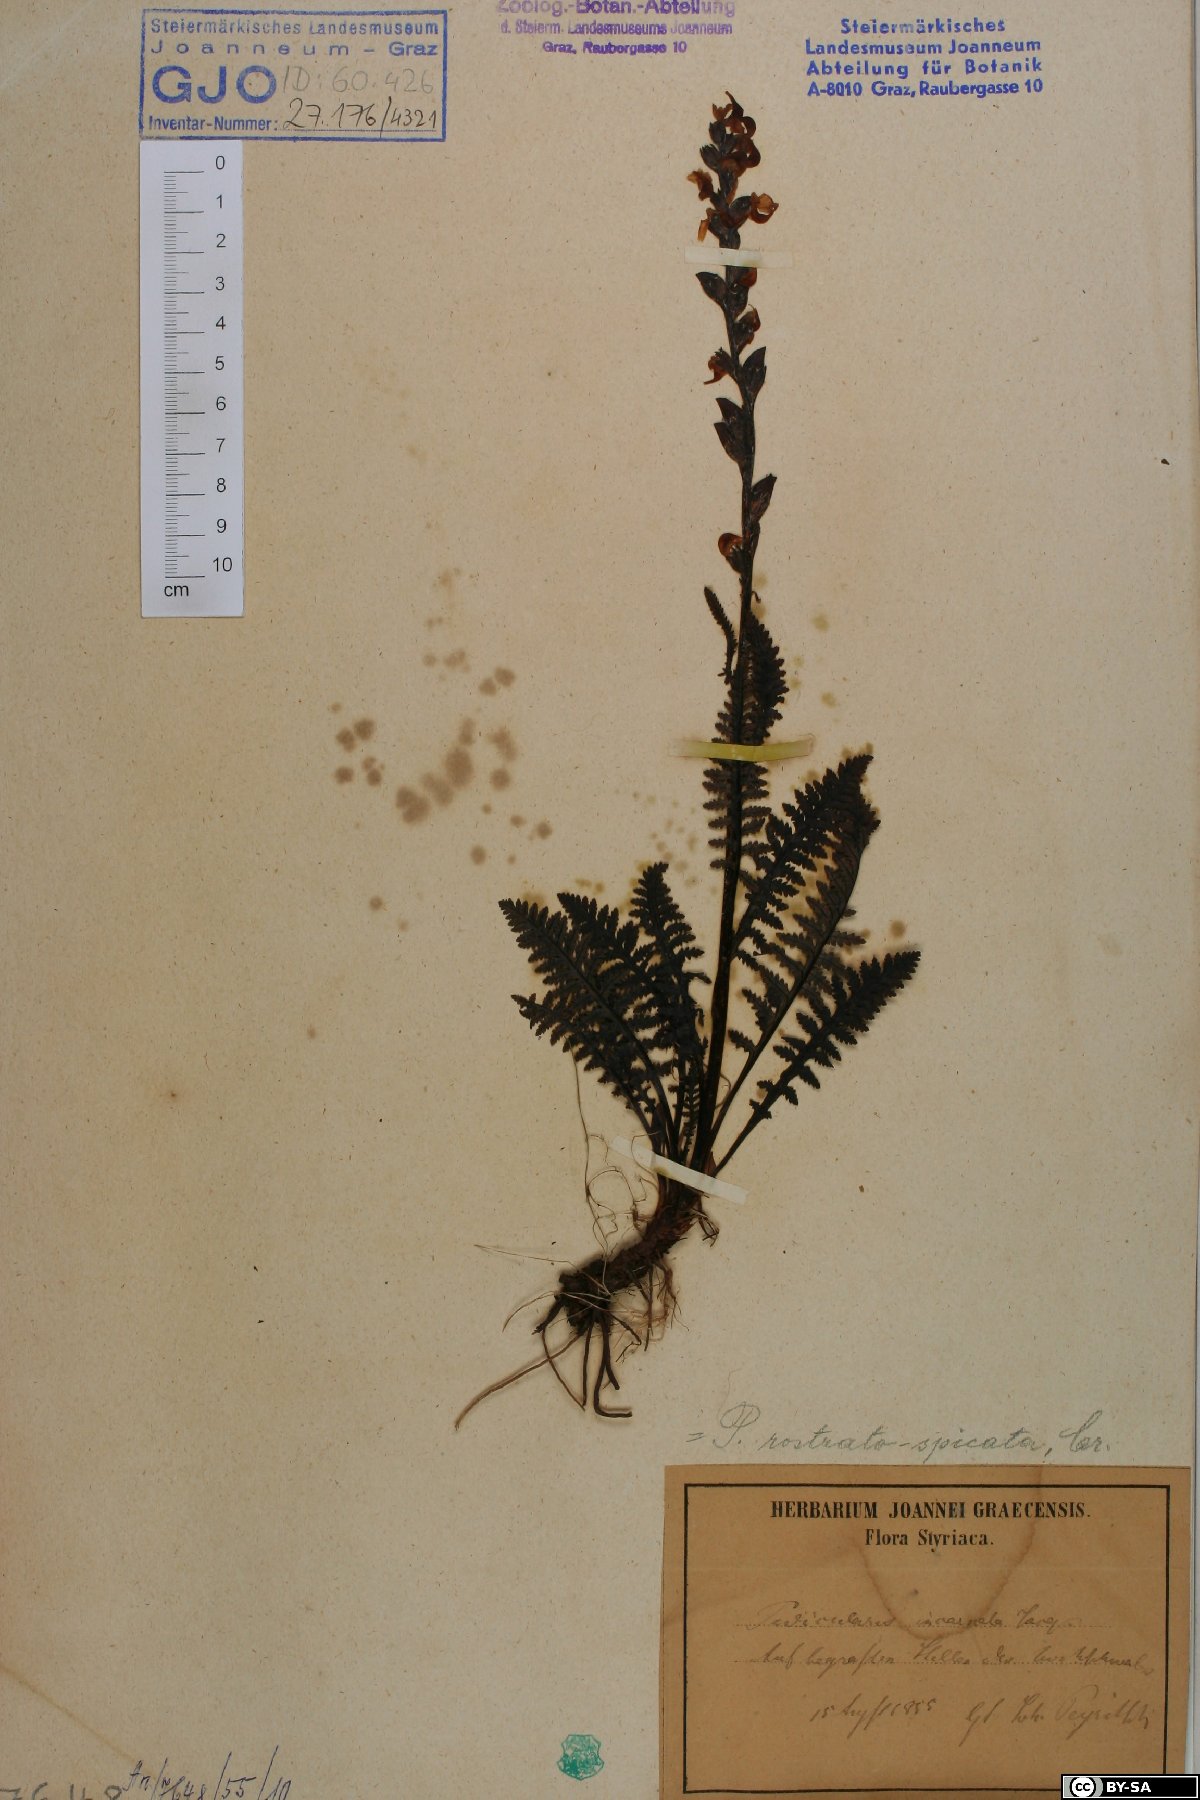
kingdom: Plantae
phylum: Tracheophyta
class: Magnoliopsida
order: Lamiales
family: Orobanchaceae
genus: Pedicularis
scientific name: Pedicularis rostratospicata
